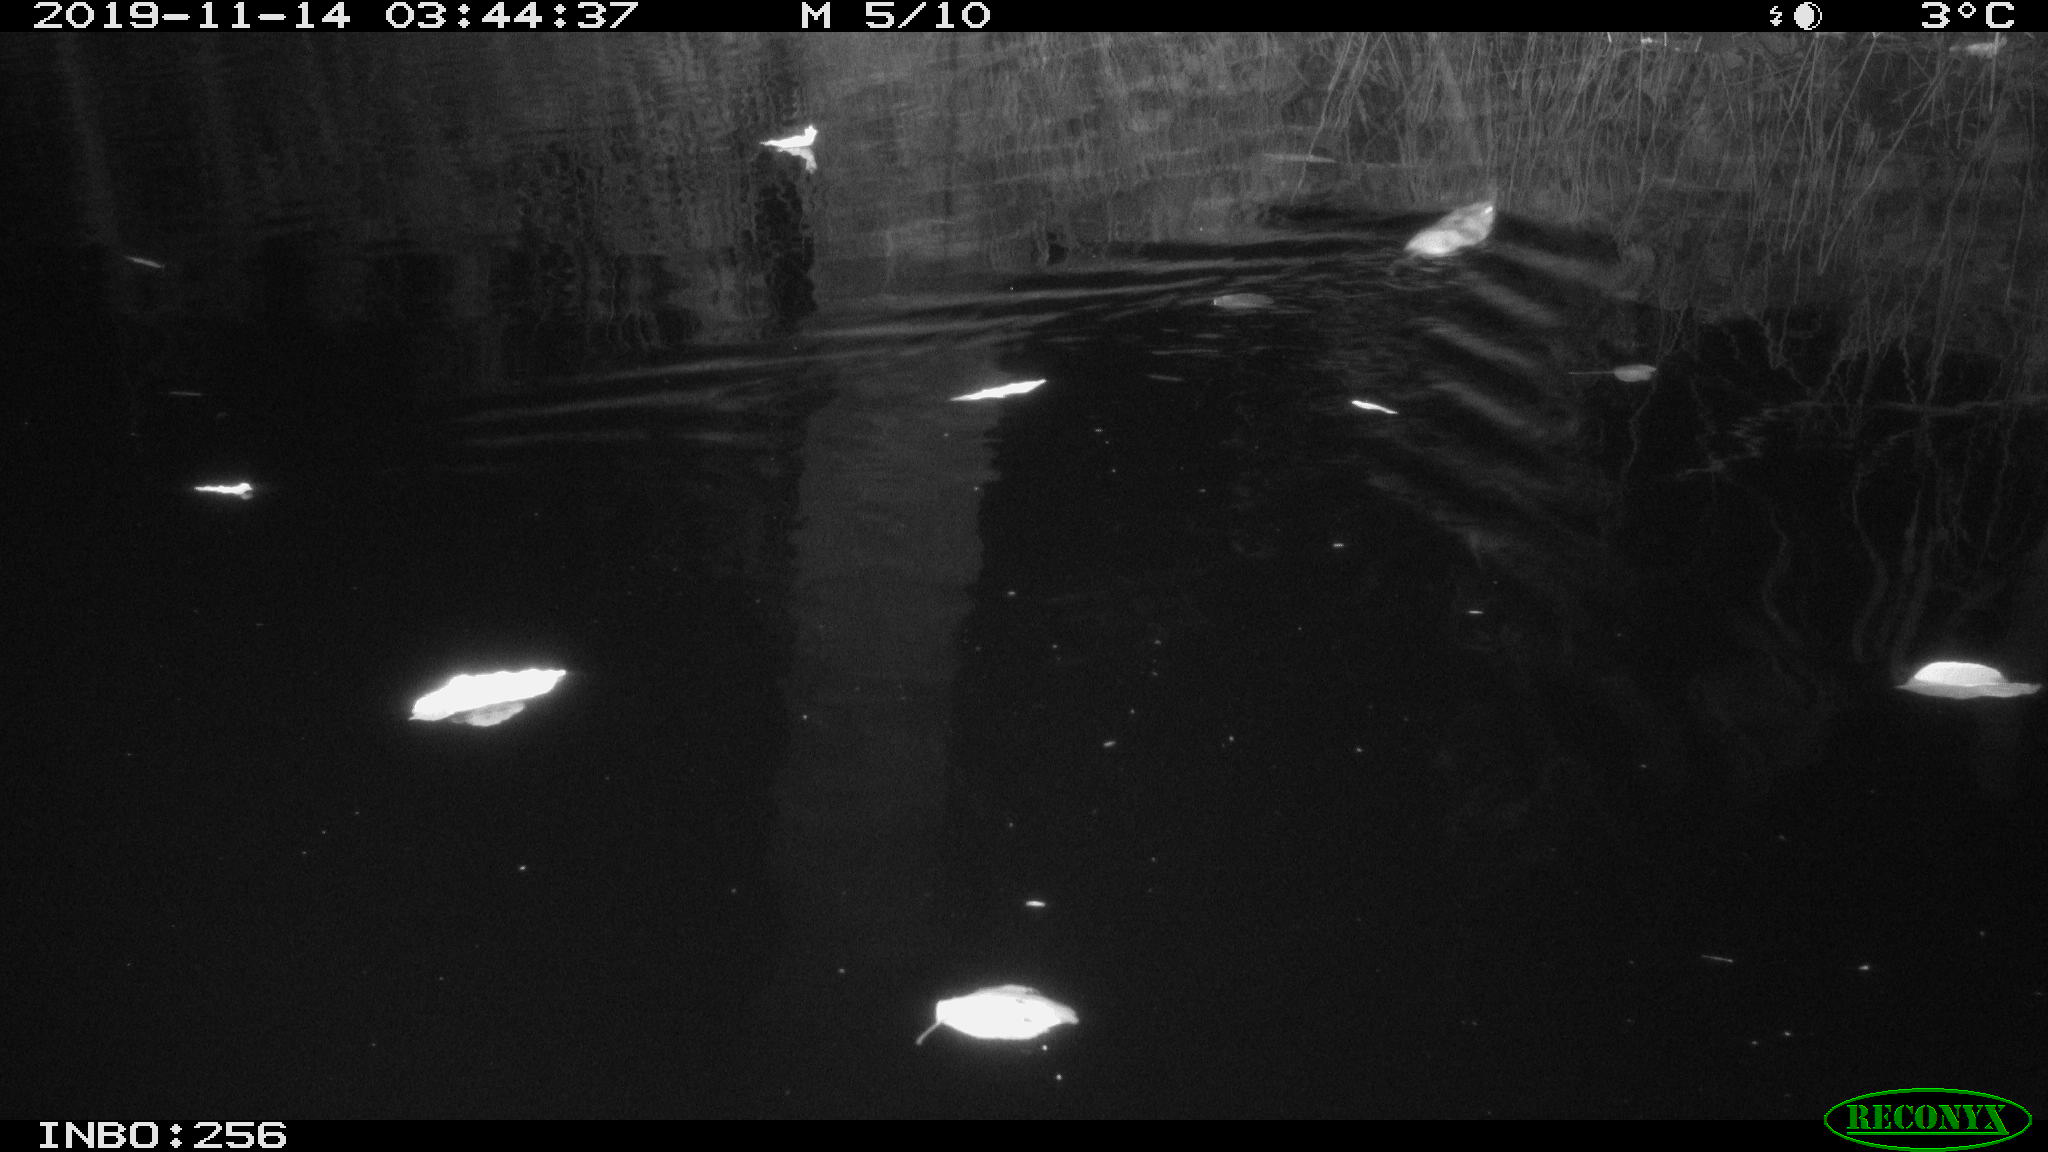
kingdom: Animalia
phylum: Chordata
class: Mammalia
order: Rodentia
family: Muridae
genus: Rattus
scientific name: Rattus norvegicus
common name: Brown rat
